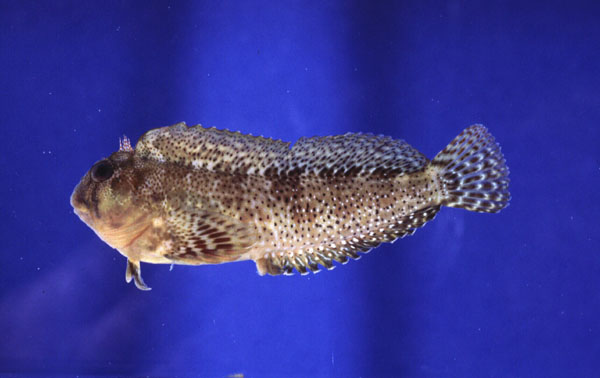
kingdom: Animalia
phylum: Chordata
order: Perciformes
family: Blenniidae
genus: Scartella
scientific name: Scartella emarginata
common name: Maned blenny
